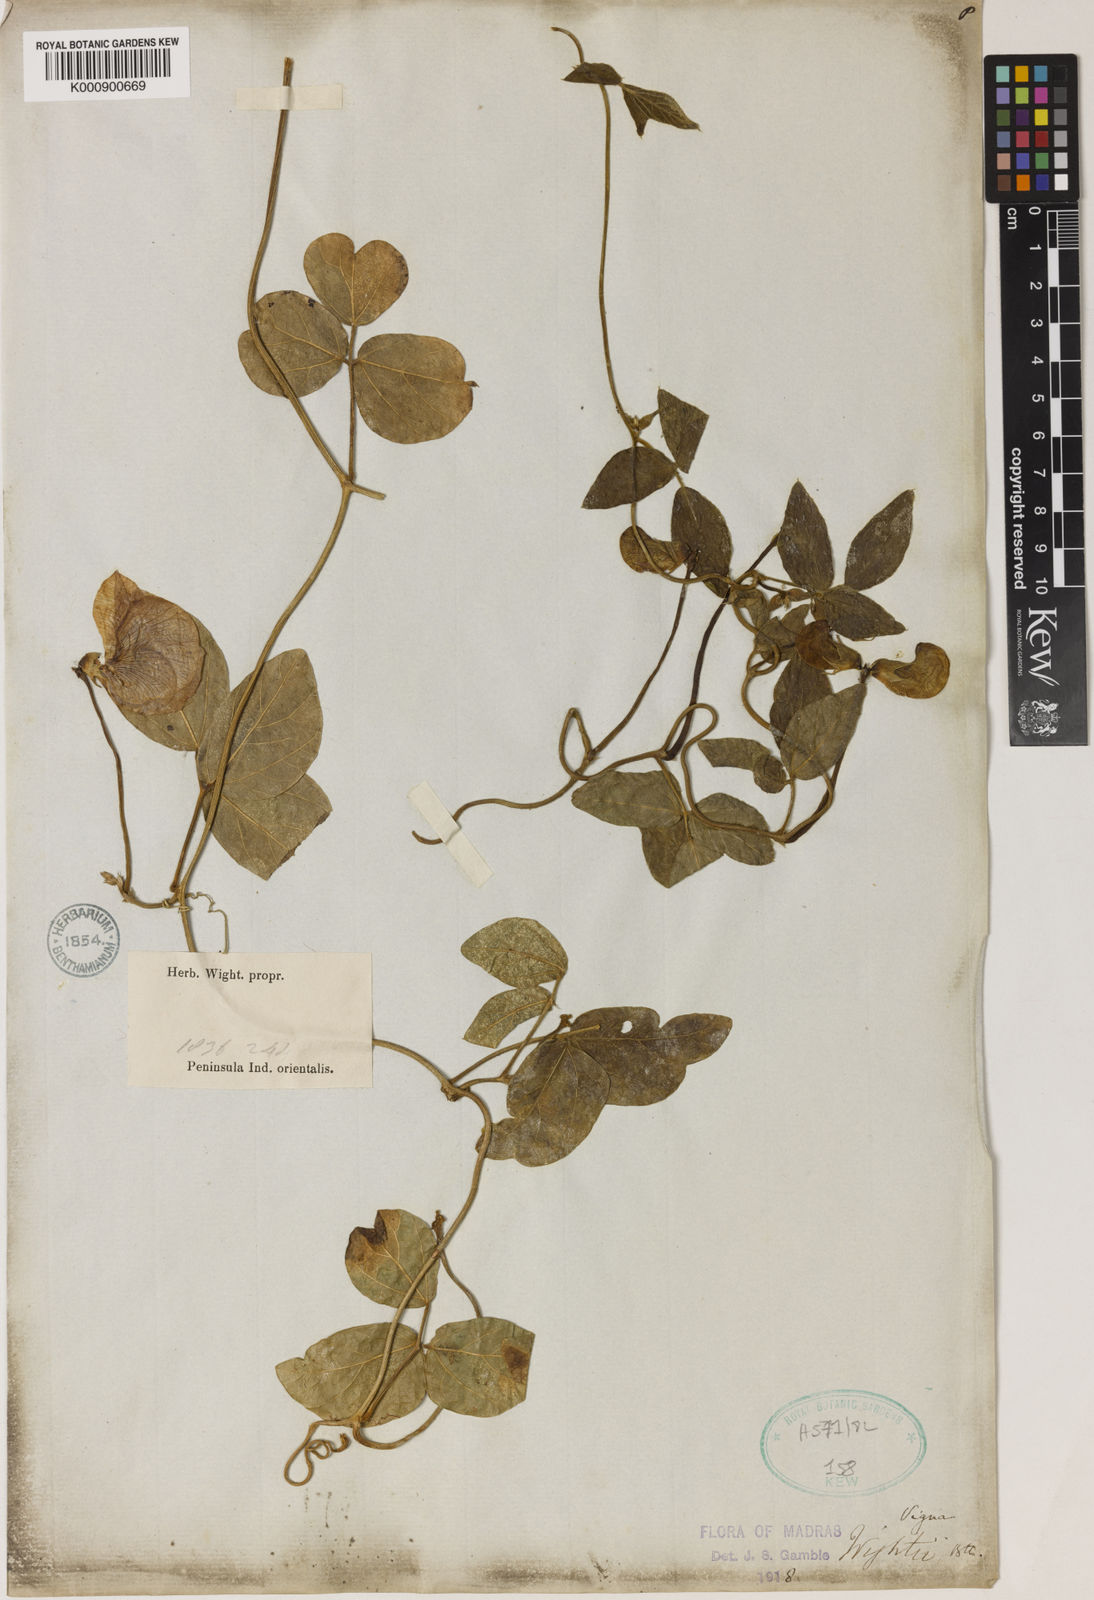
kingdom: Plantae
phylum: Tracheophyta
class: Magnoliopsida
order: Fabales
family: Fabaceae
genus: Vigna
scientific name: Vigna vexillata
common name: Zombi pea
